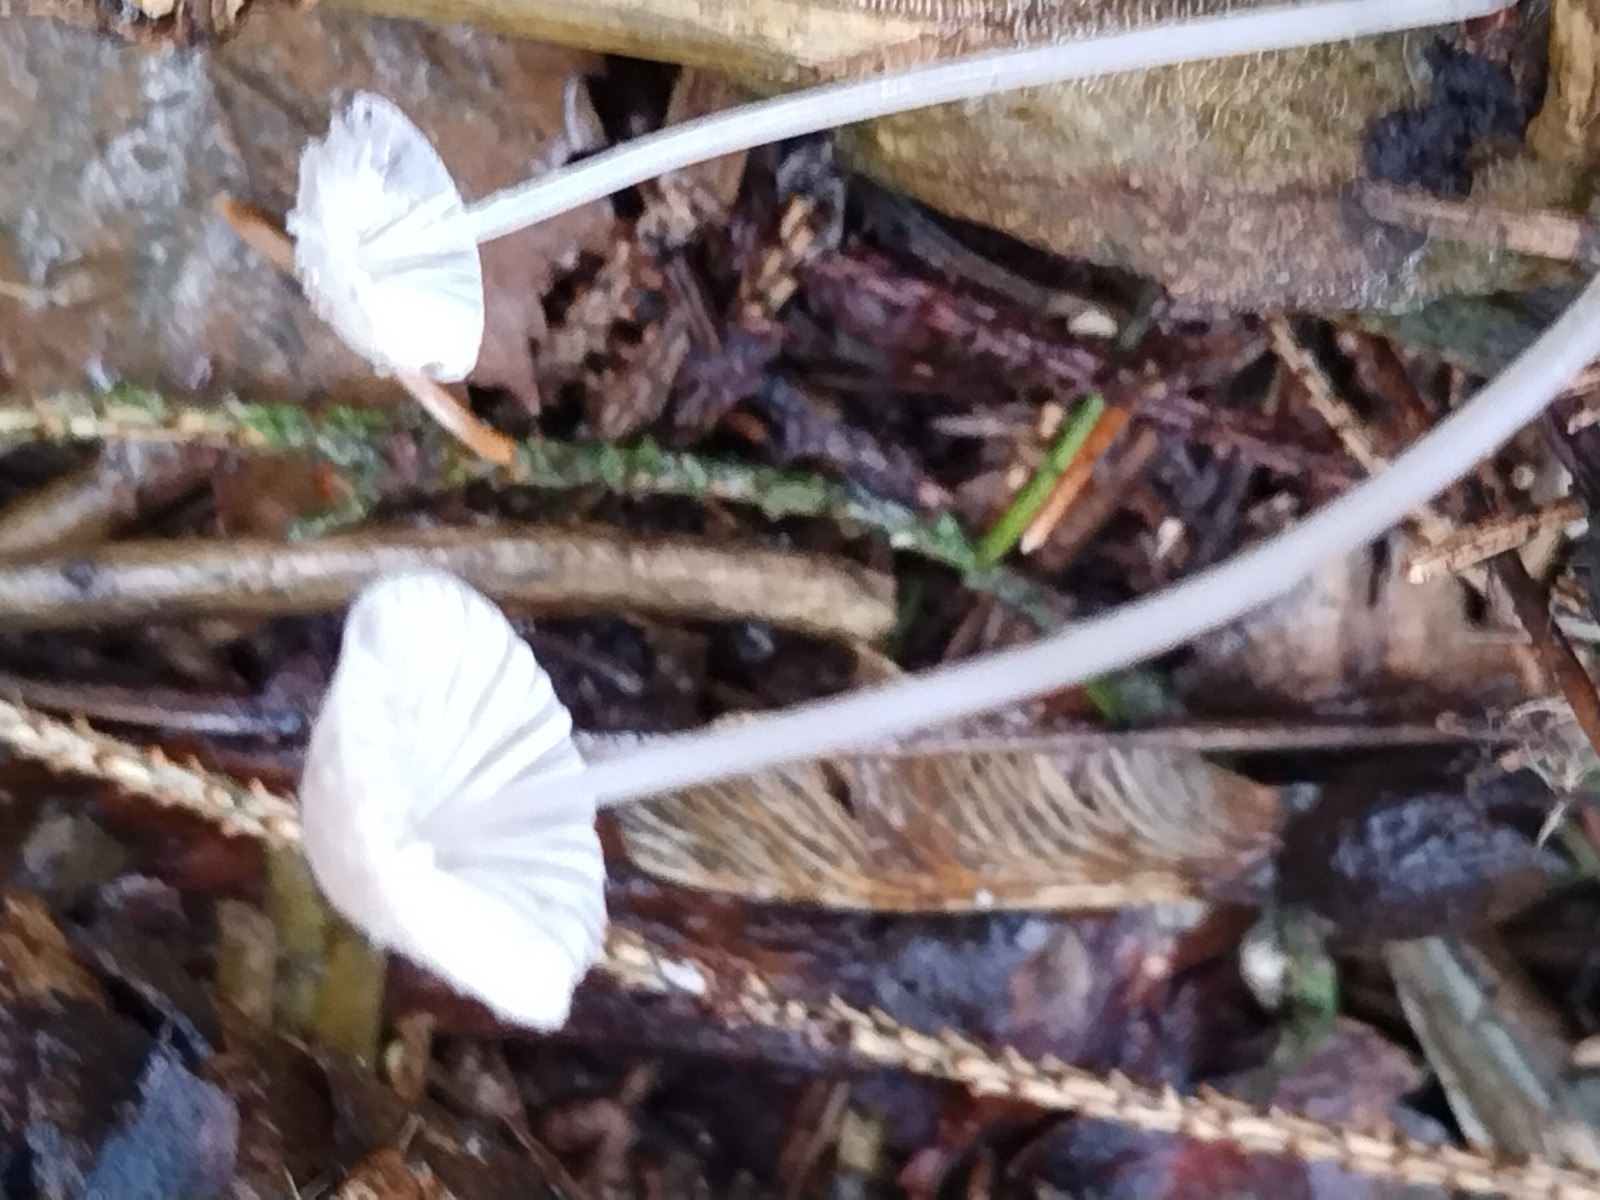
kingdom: Fungi
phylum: Basidiomycota
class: Agaricomycetes
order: Agaricales
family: Mycenaceae
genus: Mycena
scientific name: Mycena
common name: huesvamp
